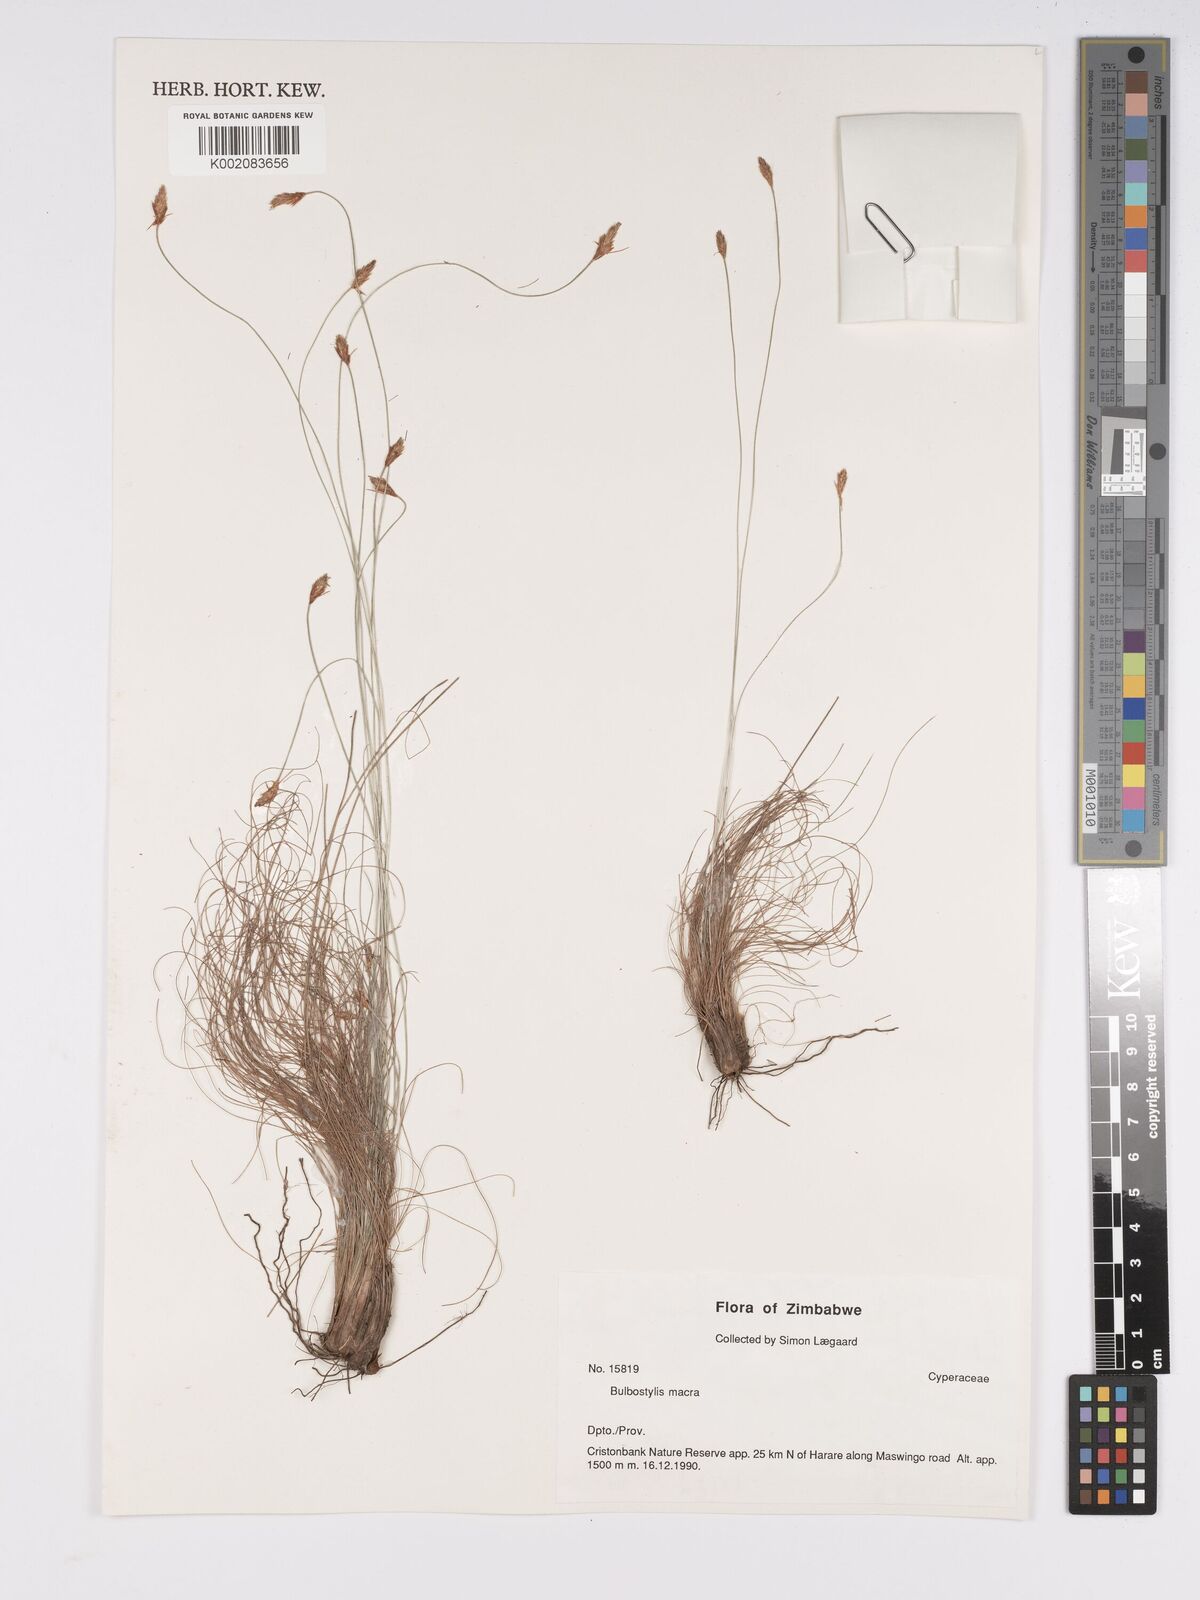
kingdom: Plantae
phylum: Tracheophyta
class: Liliopsida
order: Poales
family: Cyperaceae
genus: Bulbostylis
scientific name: Bulbostylis macra
